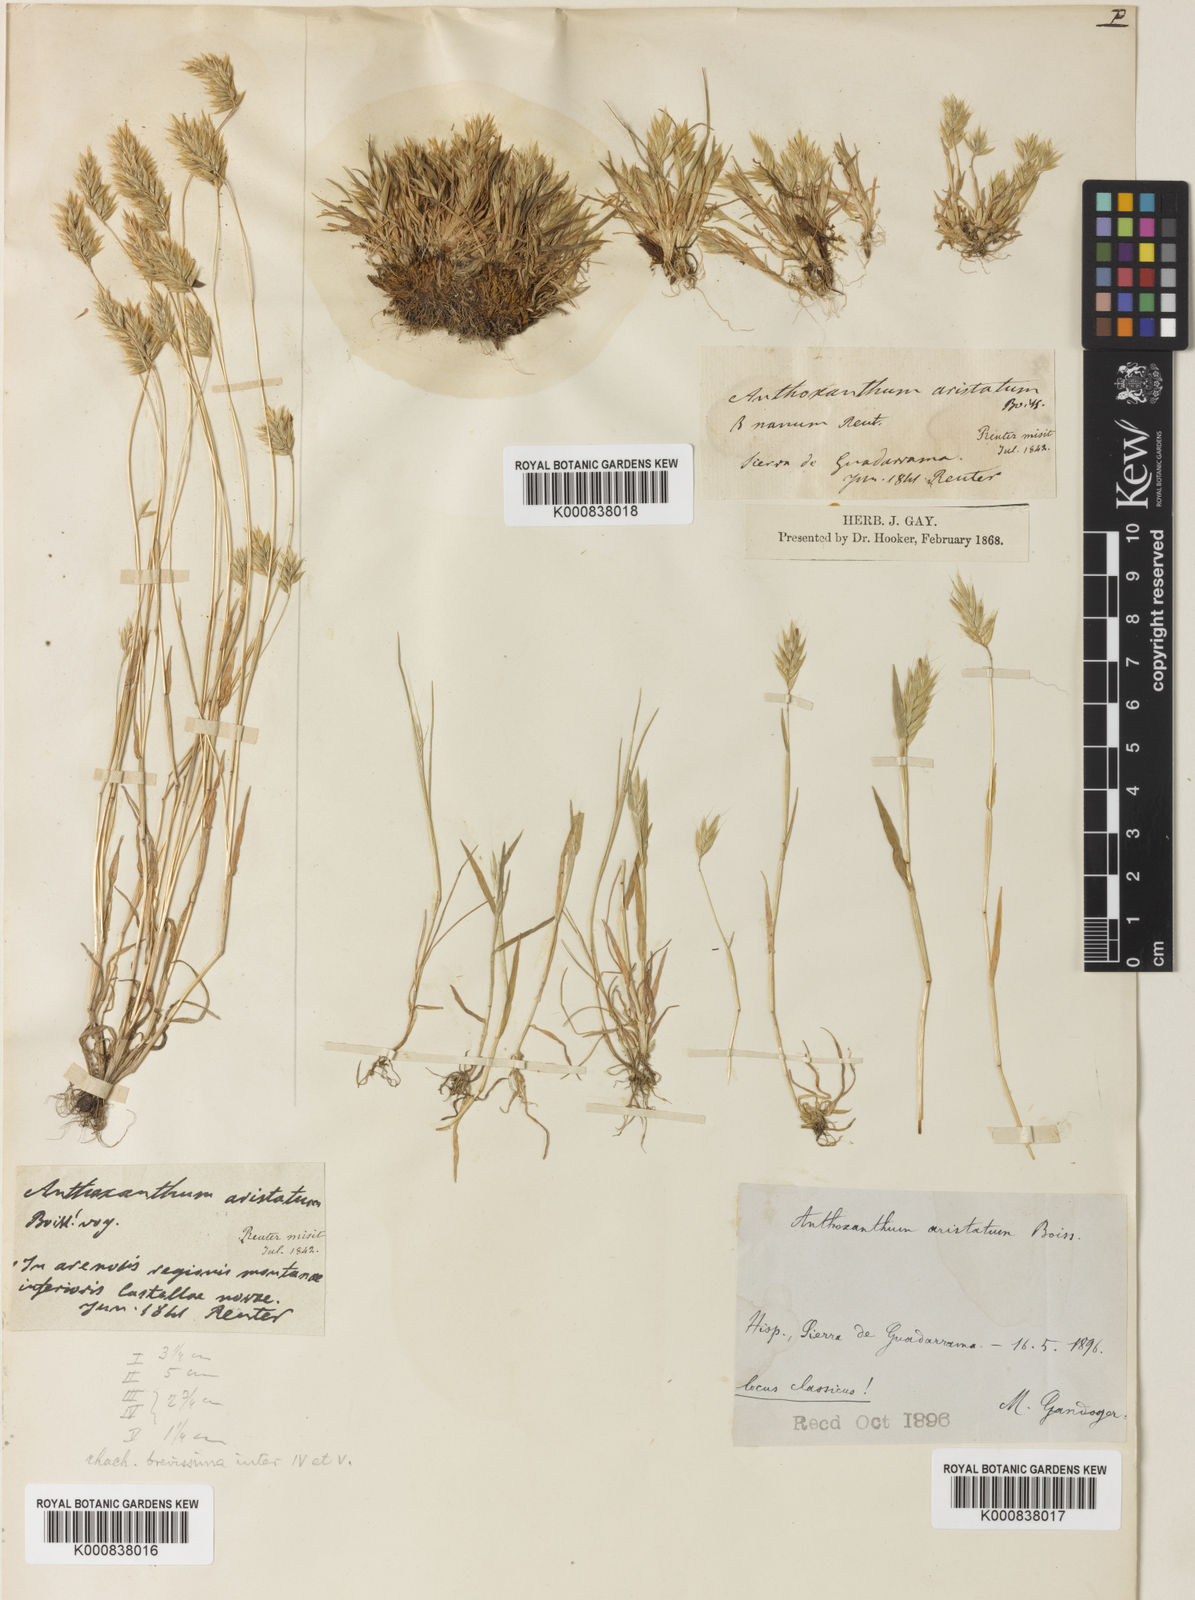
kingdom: Plantae
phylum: Tracheophyta
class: Liliopsida
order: Poales
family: Poaceae
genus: Anthoxanthum
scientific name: Anthoxanthum aristatum
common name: Annual vernal-grass
